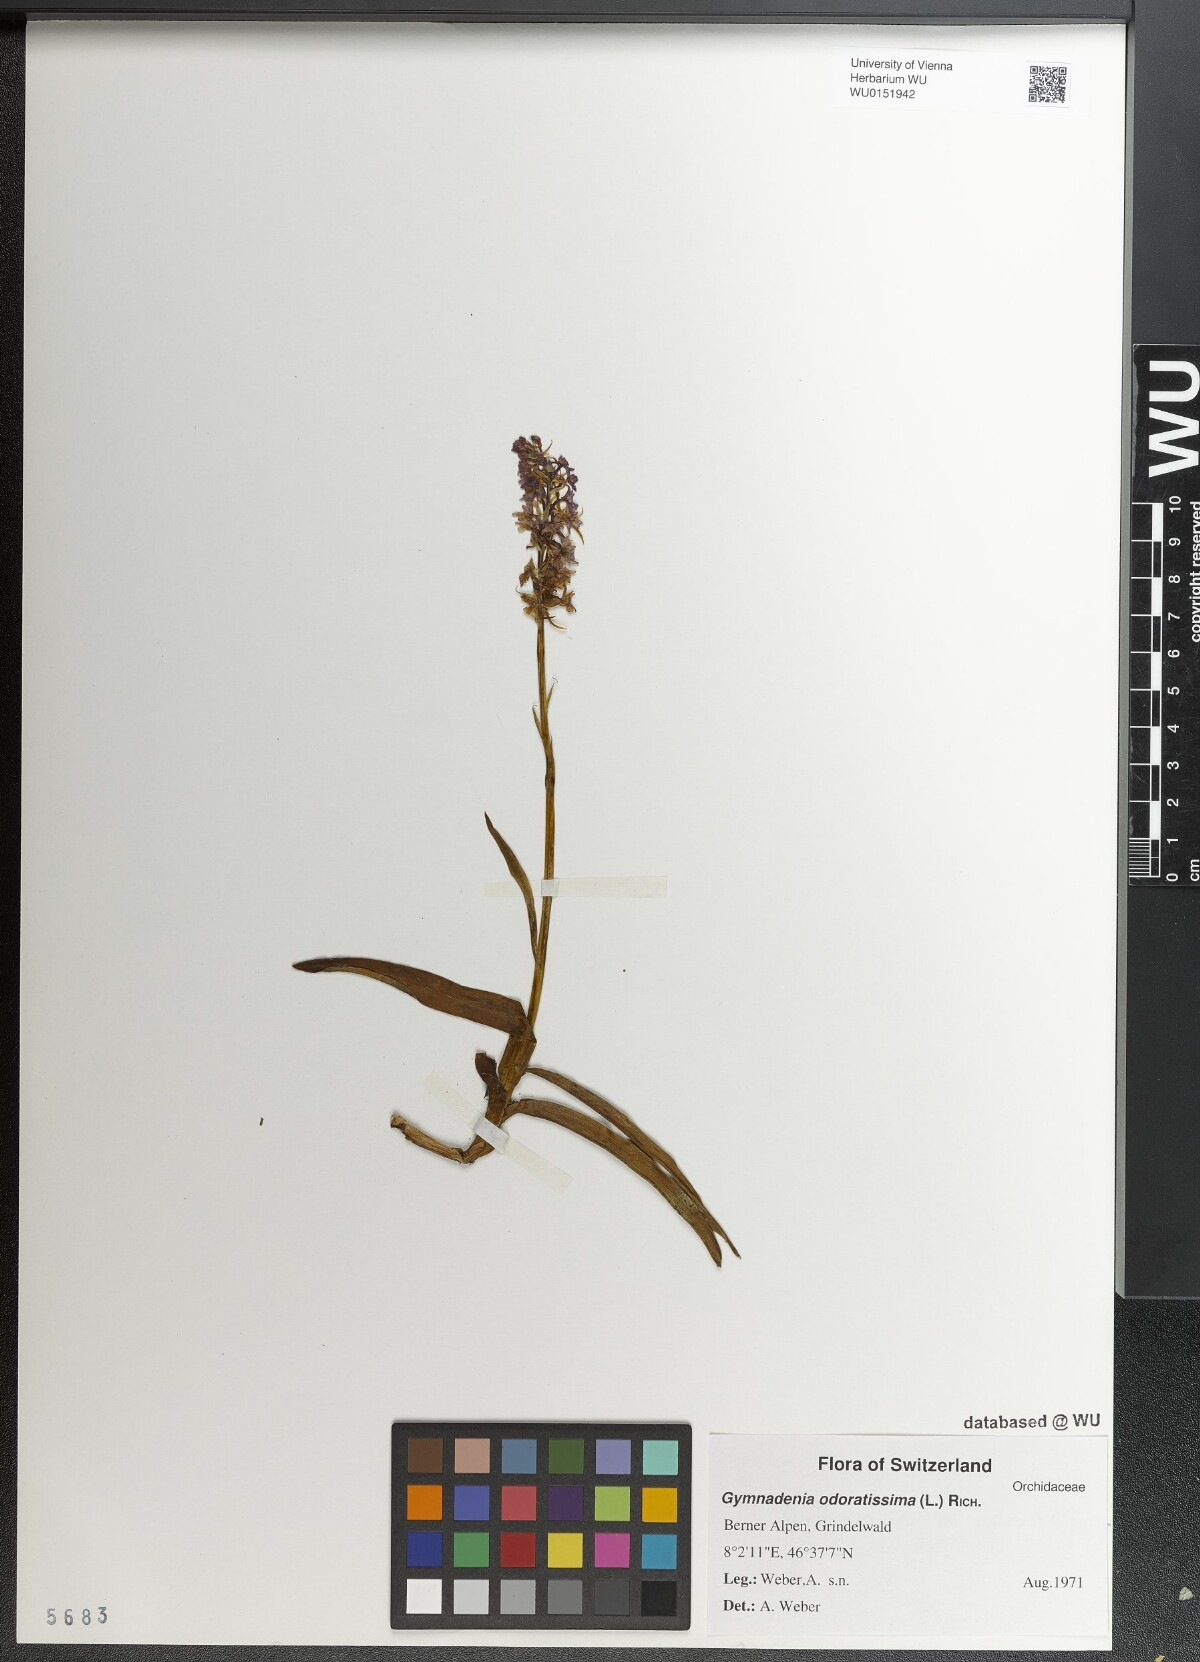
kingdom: Plantae
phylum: Tracheophyta
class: Liliopsida
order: Asparagales
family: Orchidaceae
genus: Gymnadenia
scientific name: Gymnadenia odoratissima
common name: Scented gymnadenia
